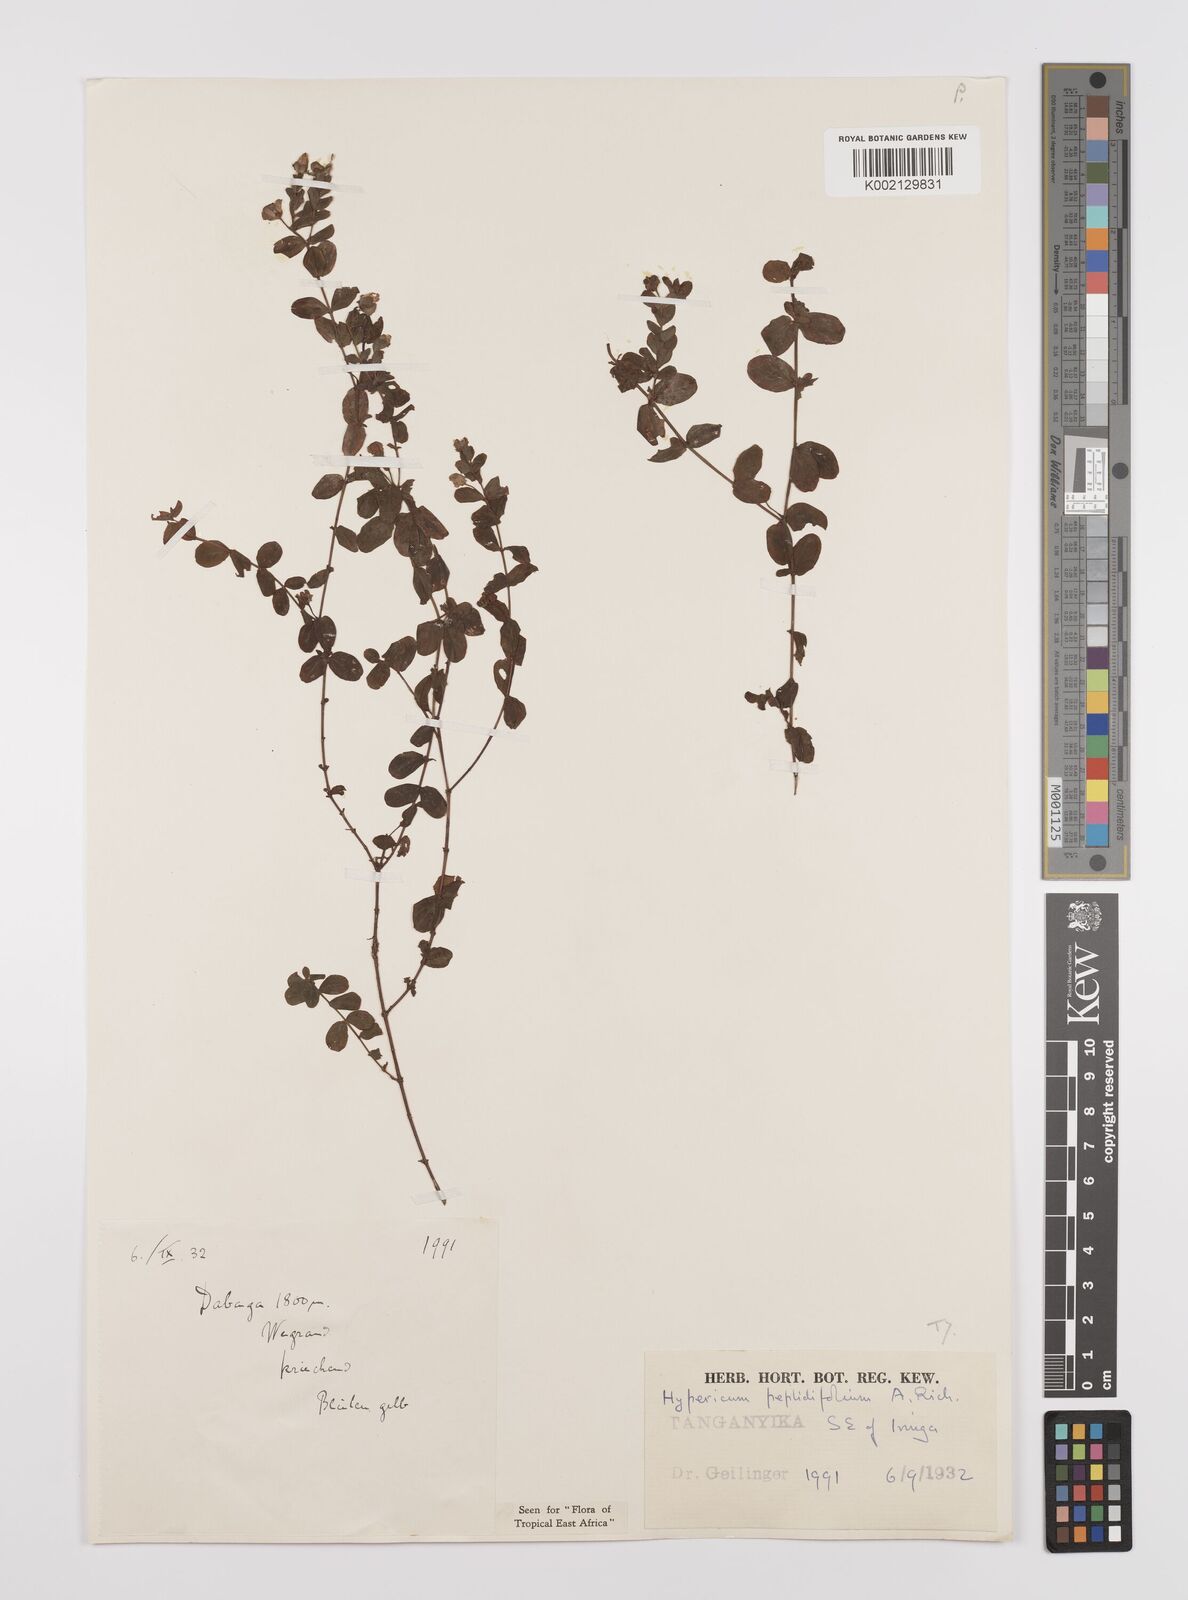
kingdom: Plantae
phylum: Tracheophyta
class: Magnoliopsida
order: Malpighiales
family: Hypericaceae
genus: Hypericum
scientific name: Hypericum peplidifolium
